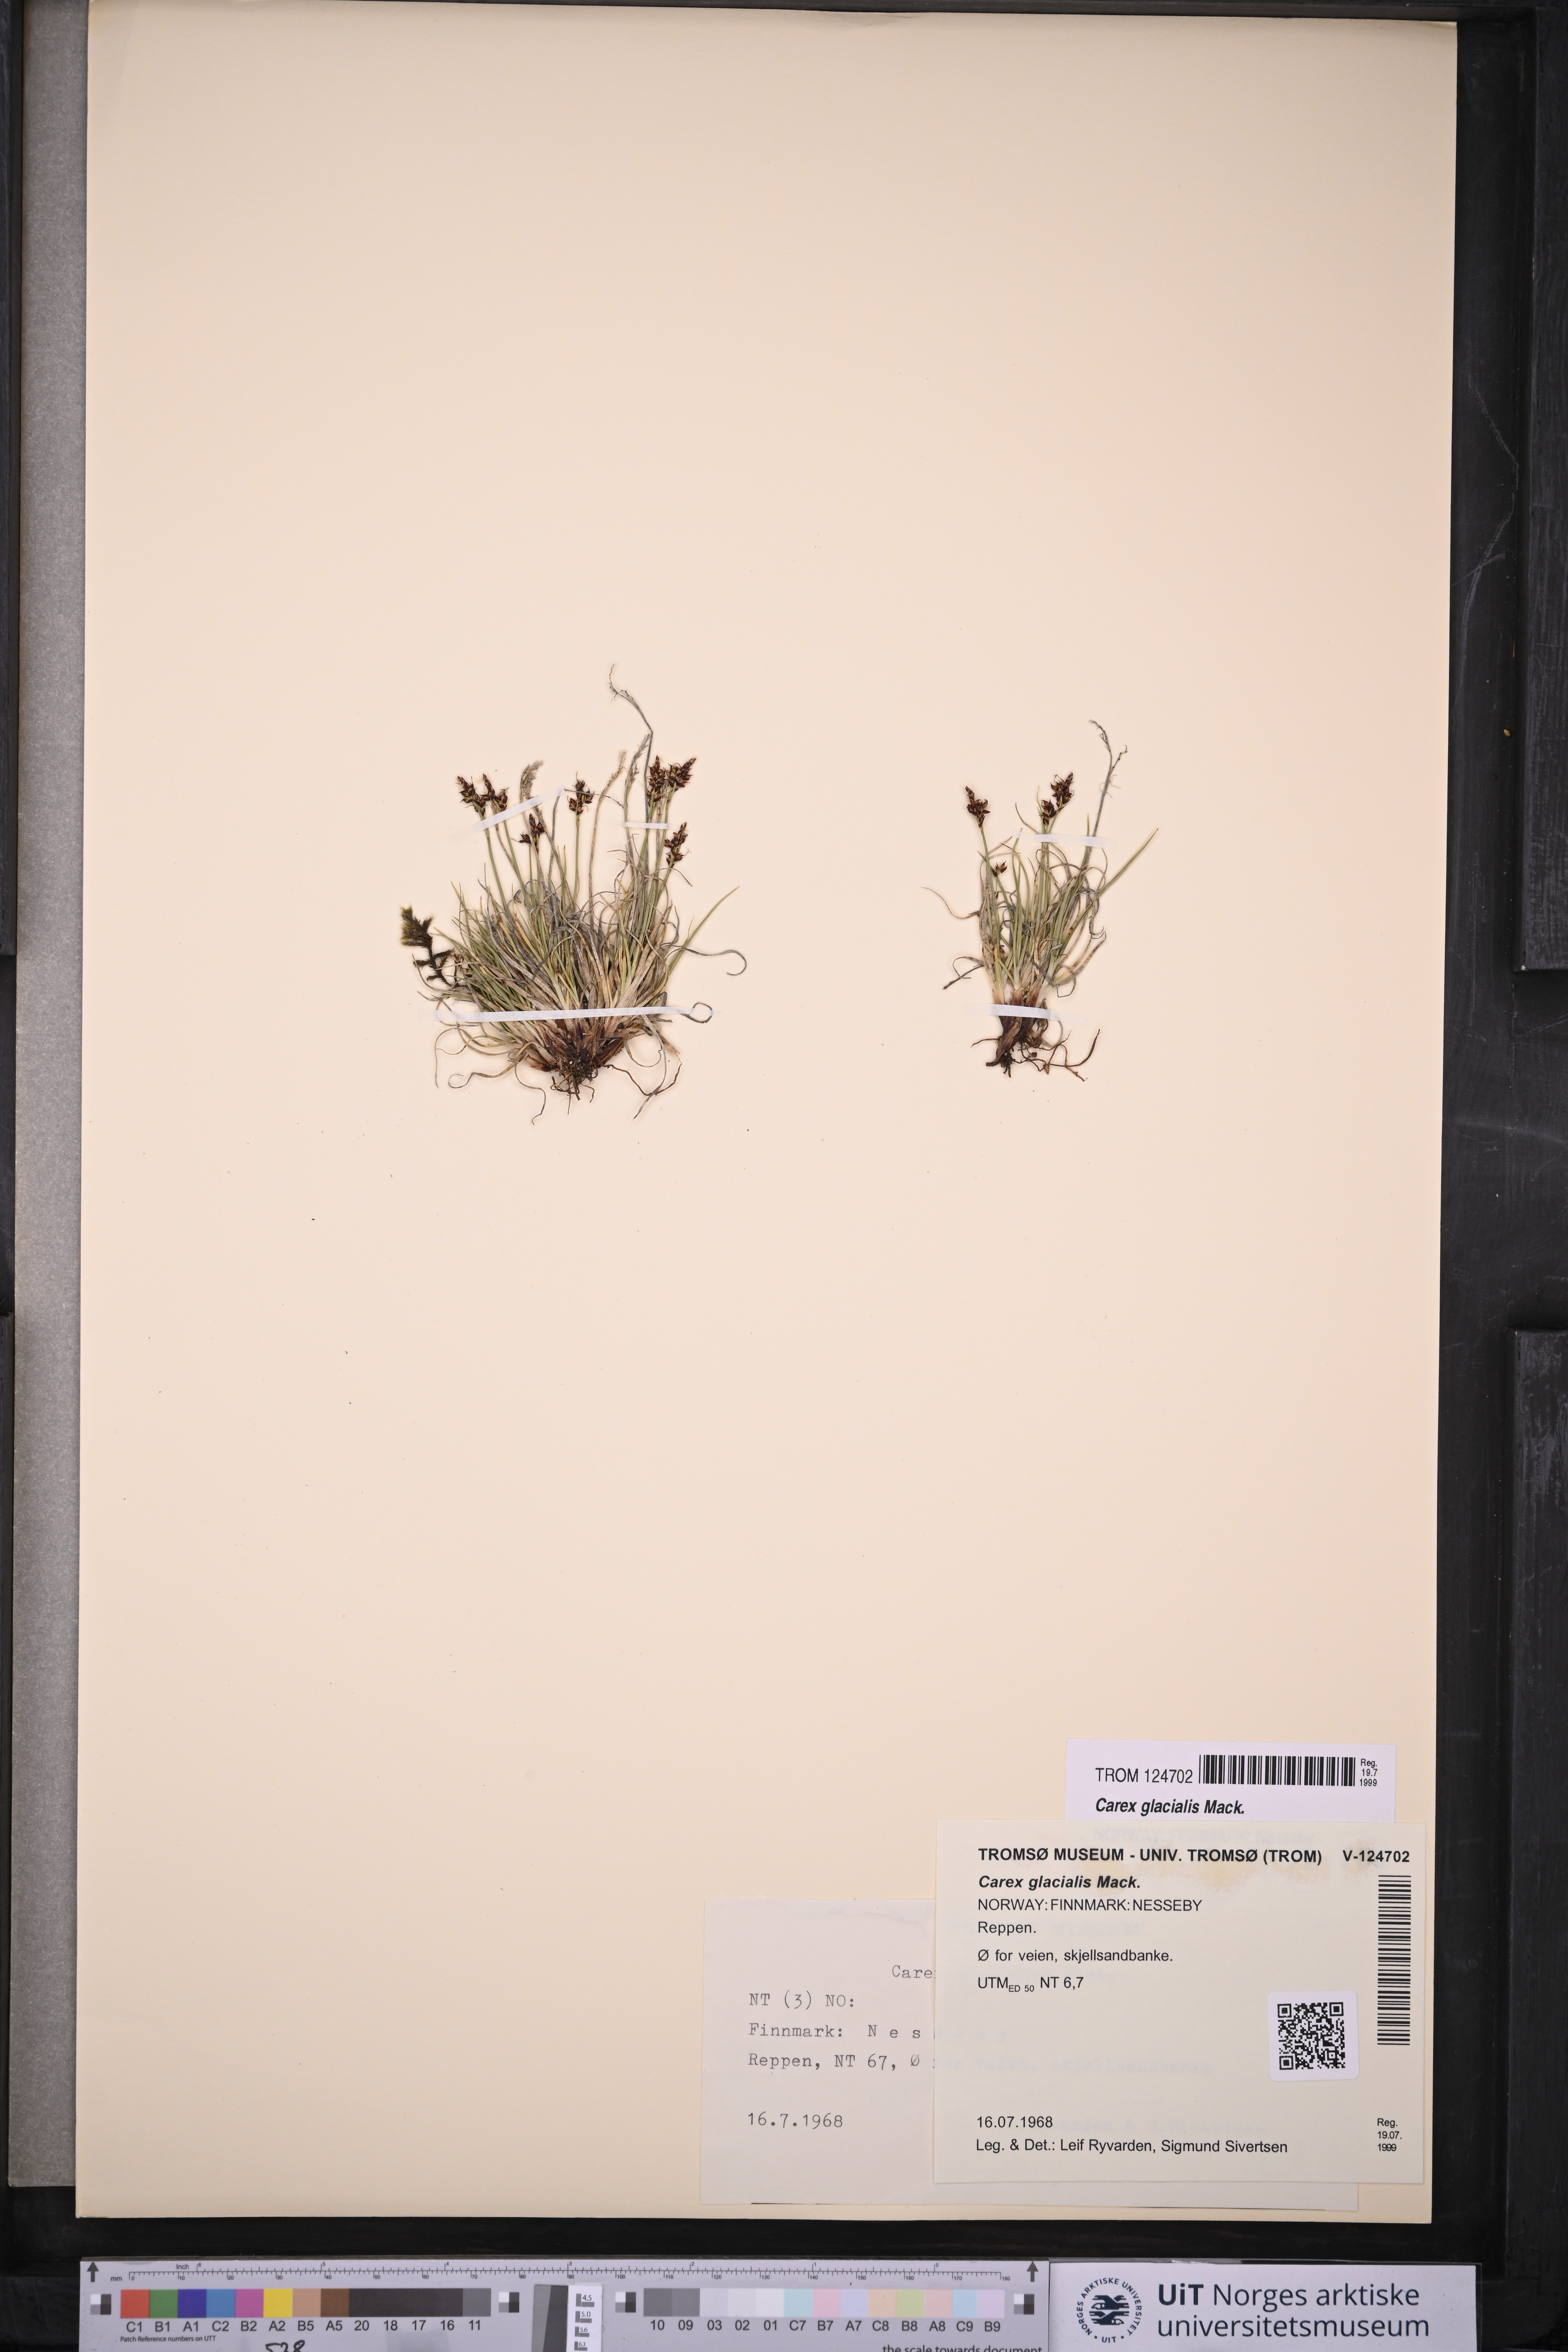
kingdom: Plantae
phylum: Tracheophyta
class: Liliopsida
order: Poales
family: Cyperaceae
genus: Carex
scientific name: Carex glacialis
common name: Newfoundland sedge
